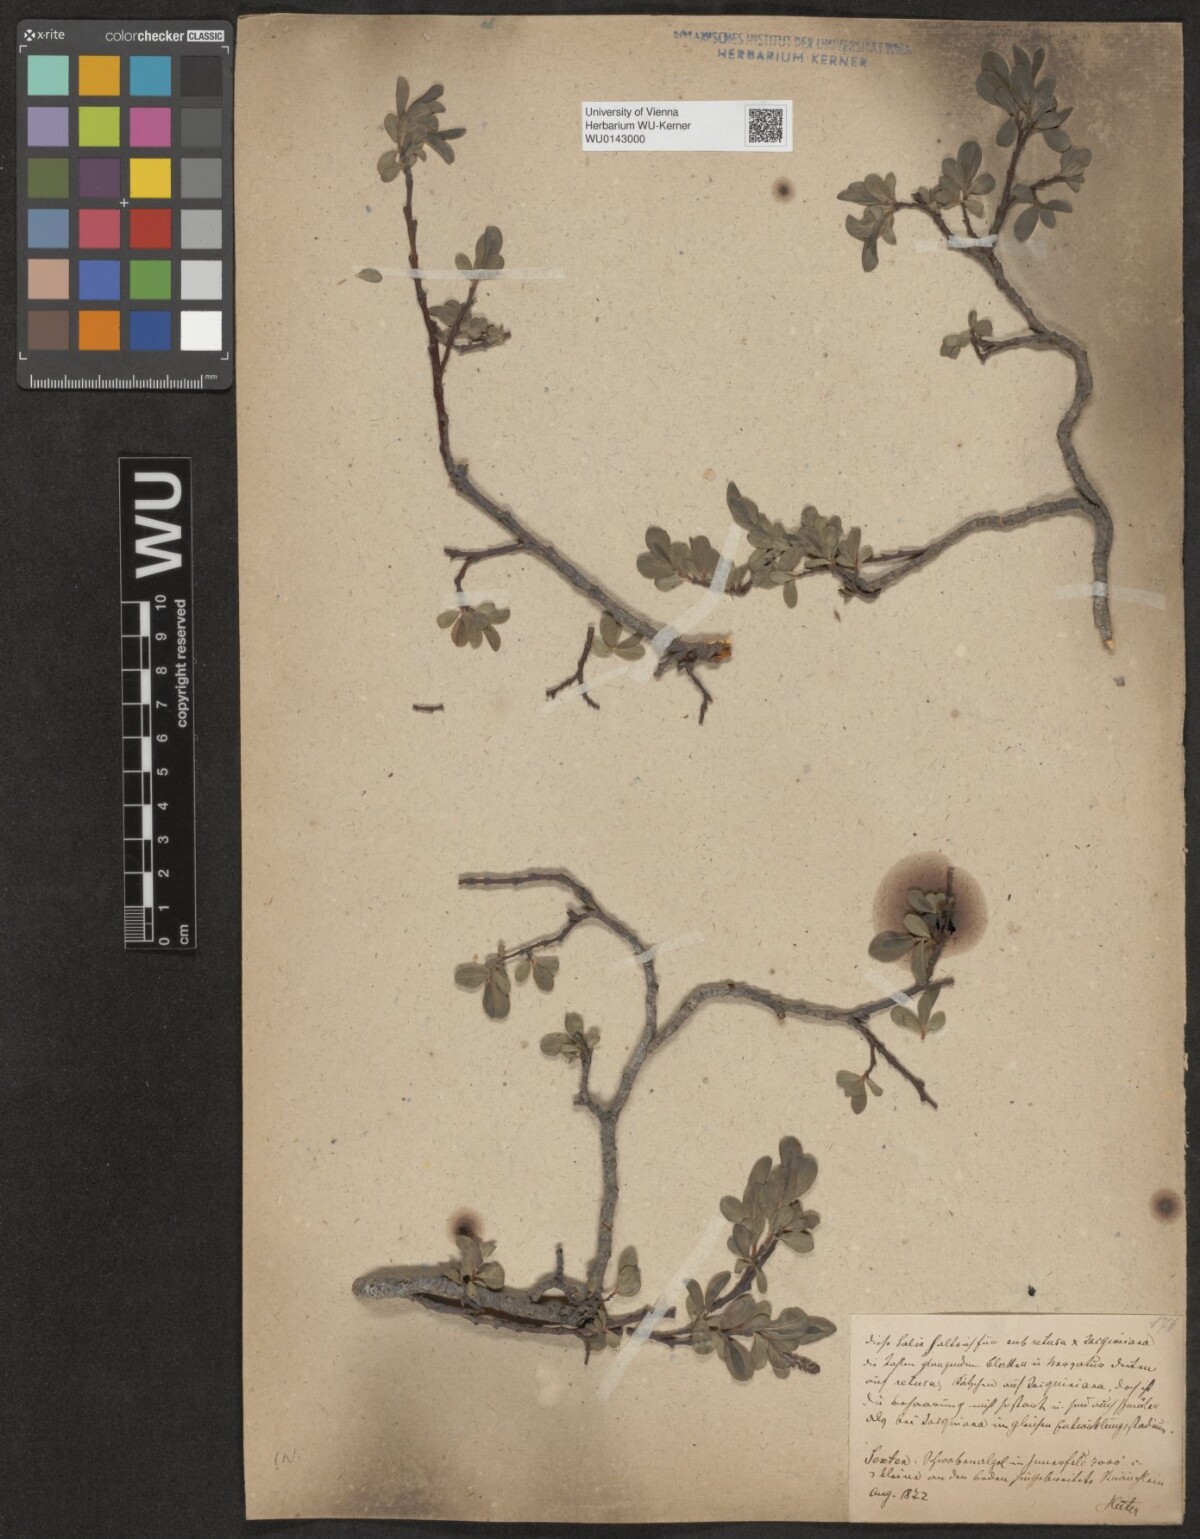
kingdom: Plantae
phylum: Tracheophyta
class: Magnoliopsida
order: Malpighiales
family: Salicaceae
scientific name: Salicaceae
